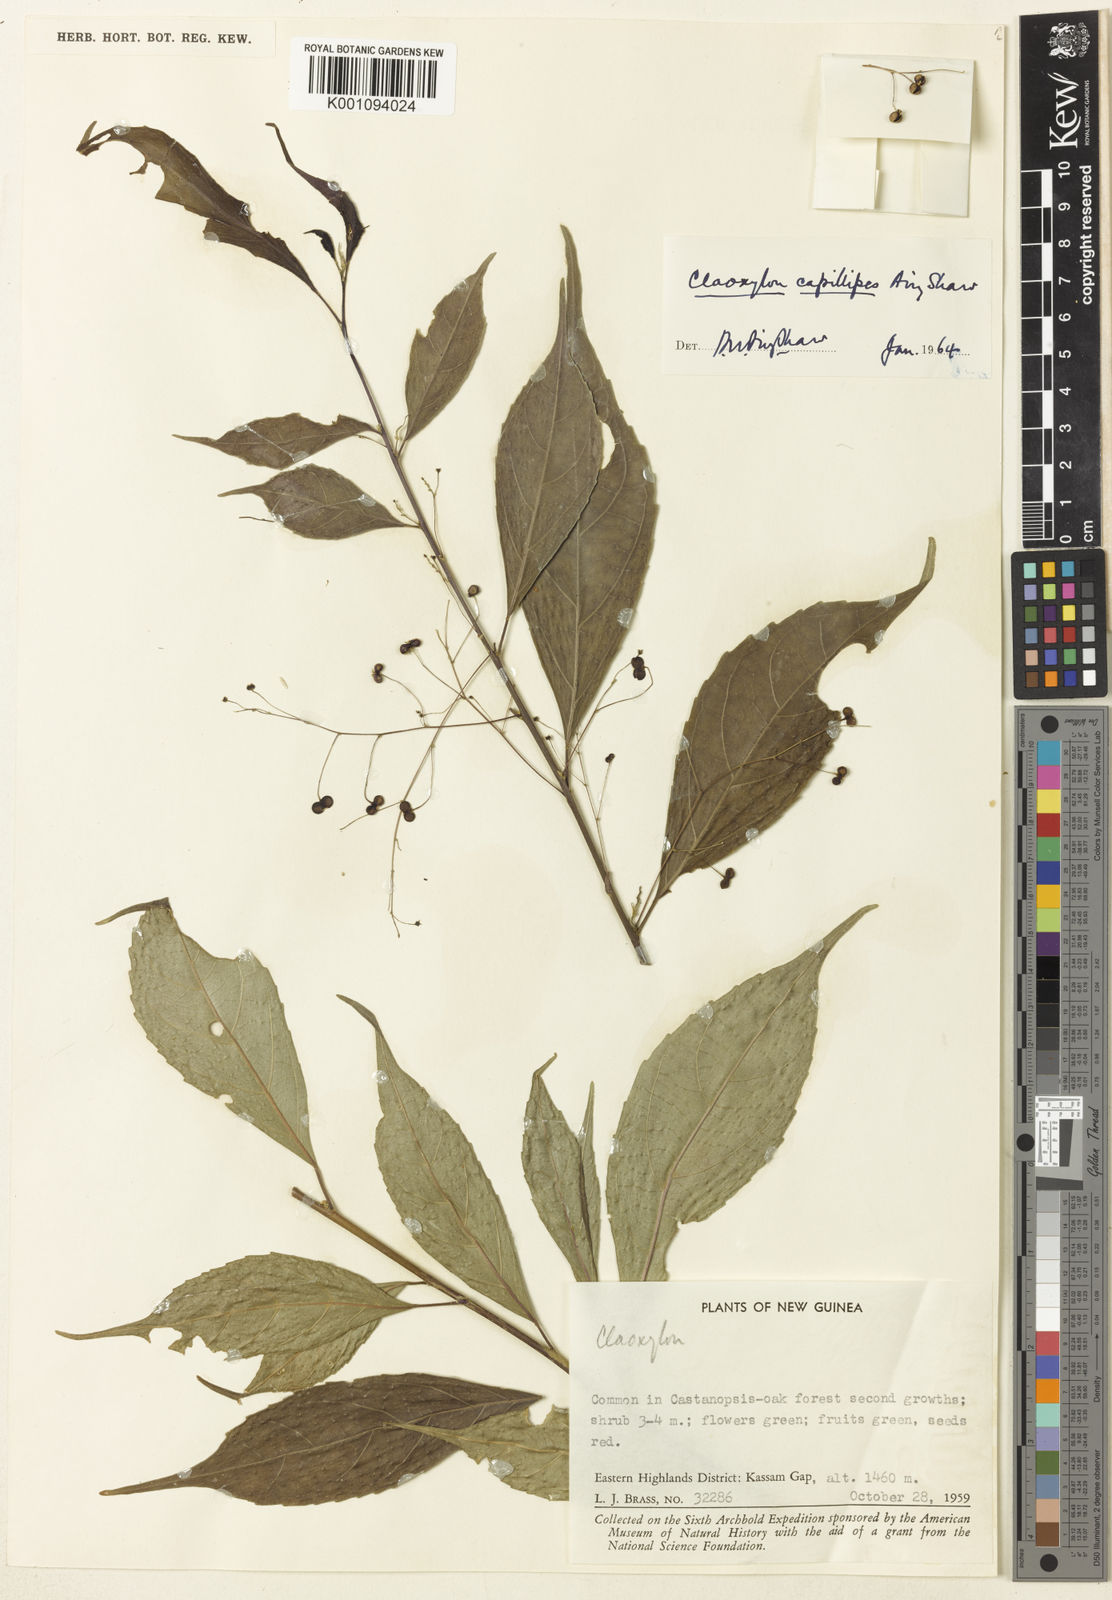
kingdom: Plantae
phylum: Tracheophyta
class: Magnoliopsida
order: Malpighiales
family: Euphorbiaceae
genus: Claoxylon
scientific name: Claoxylon capillipes
